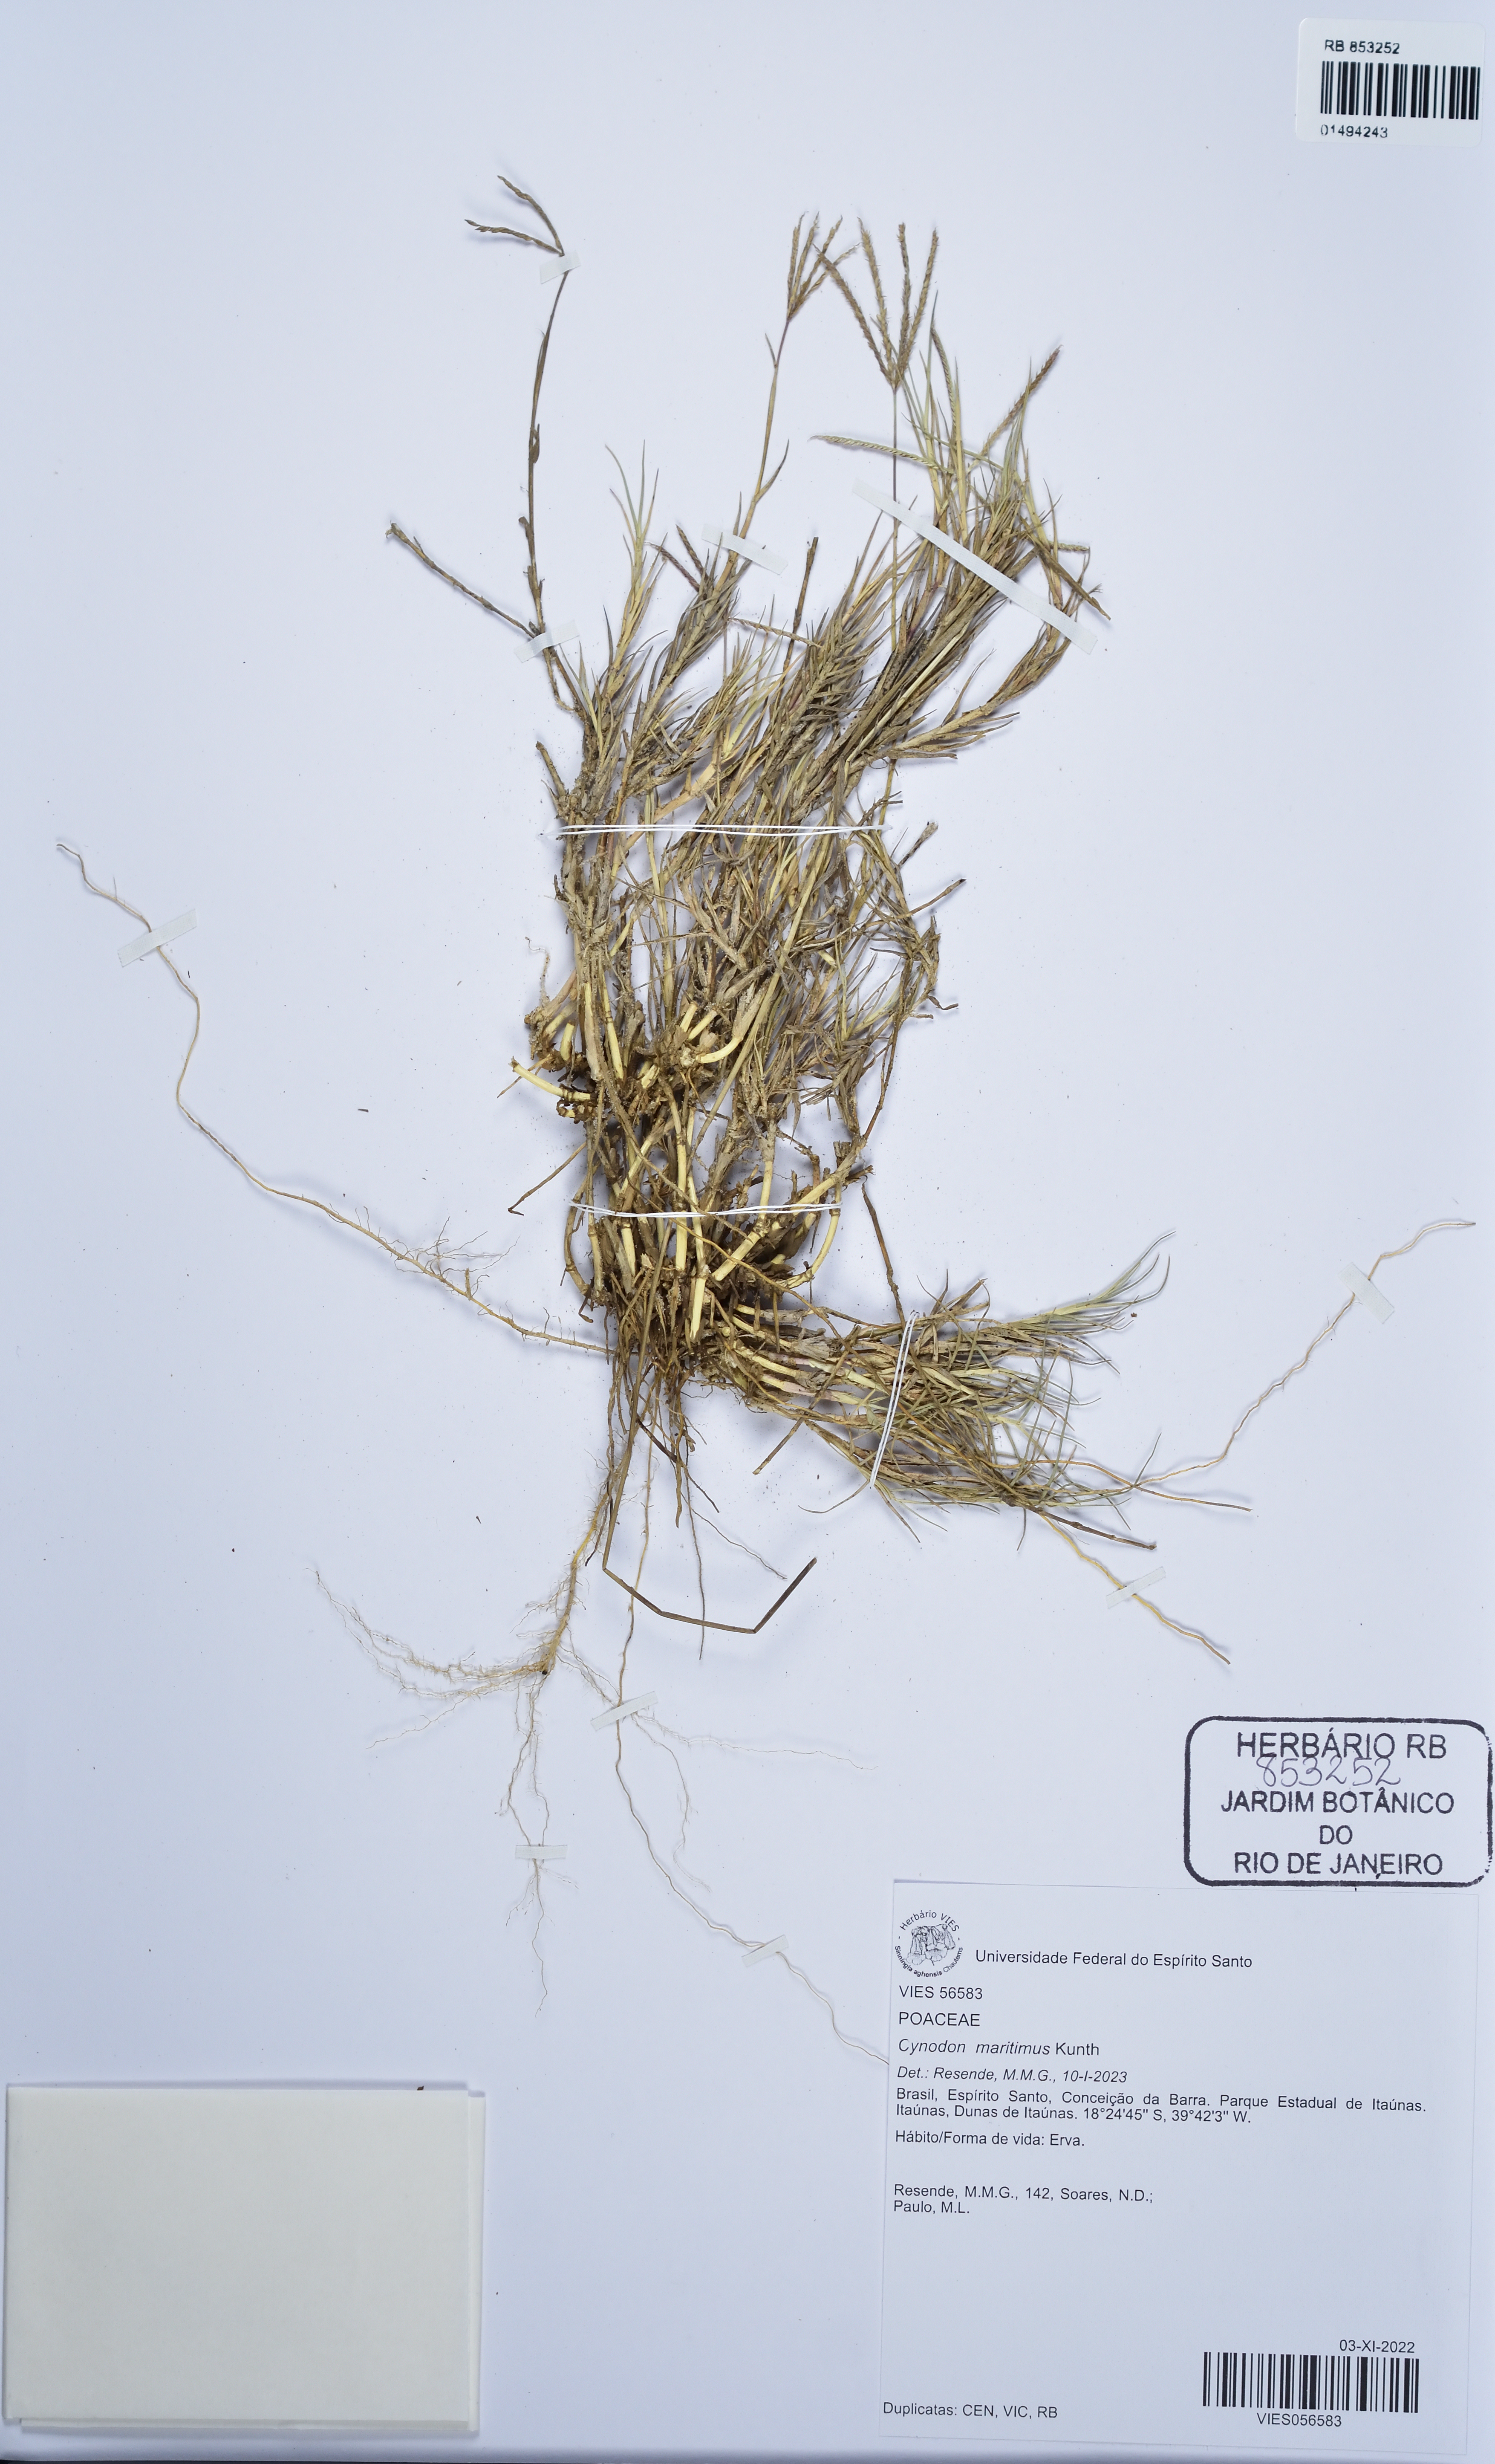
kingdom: Plantae
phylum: Tracheophyta
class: Liliopsida
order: Poales
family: Poaceae
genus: Cynodon
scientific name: Cynodon dactylon
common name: Bermuda grass
